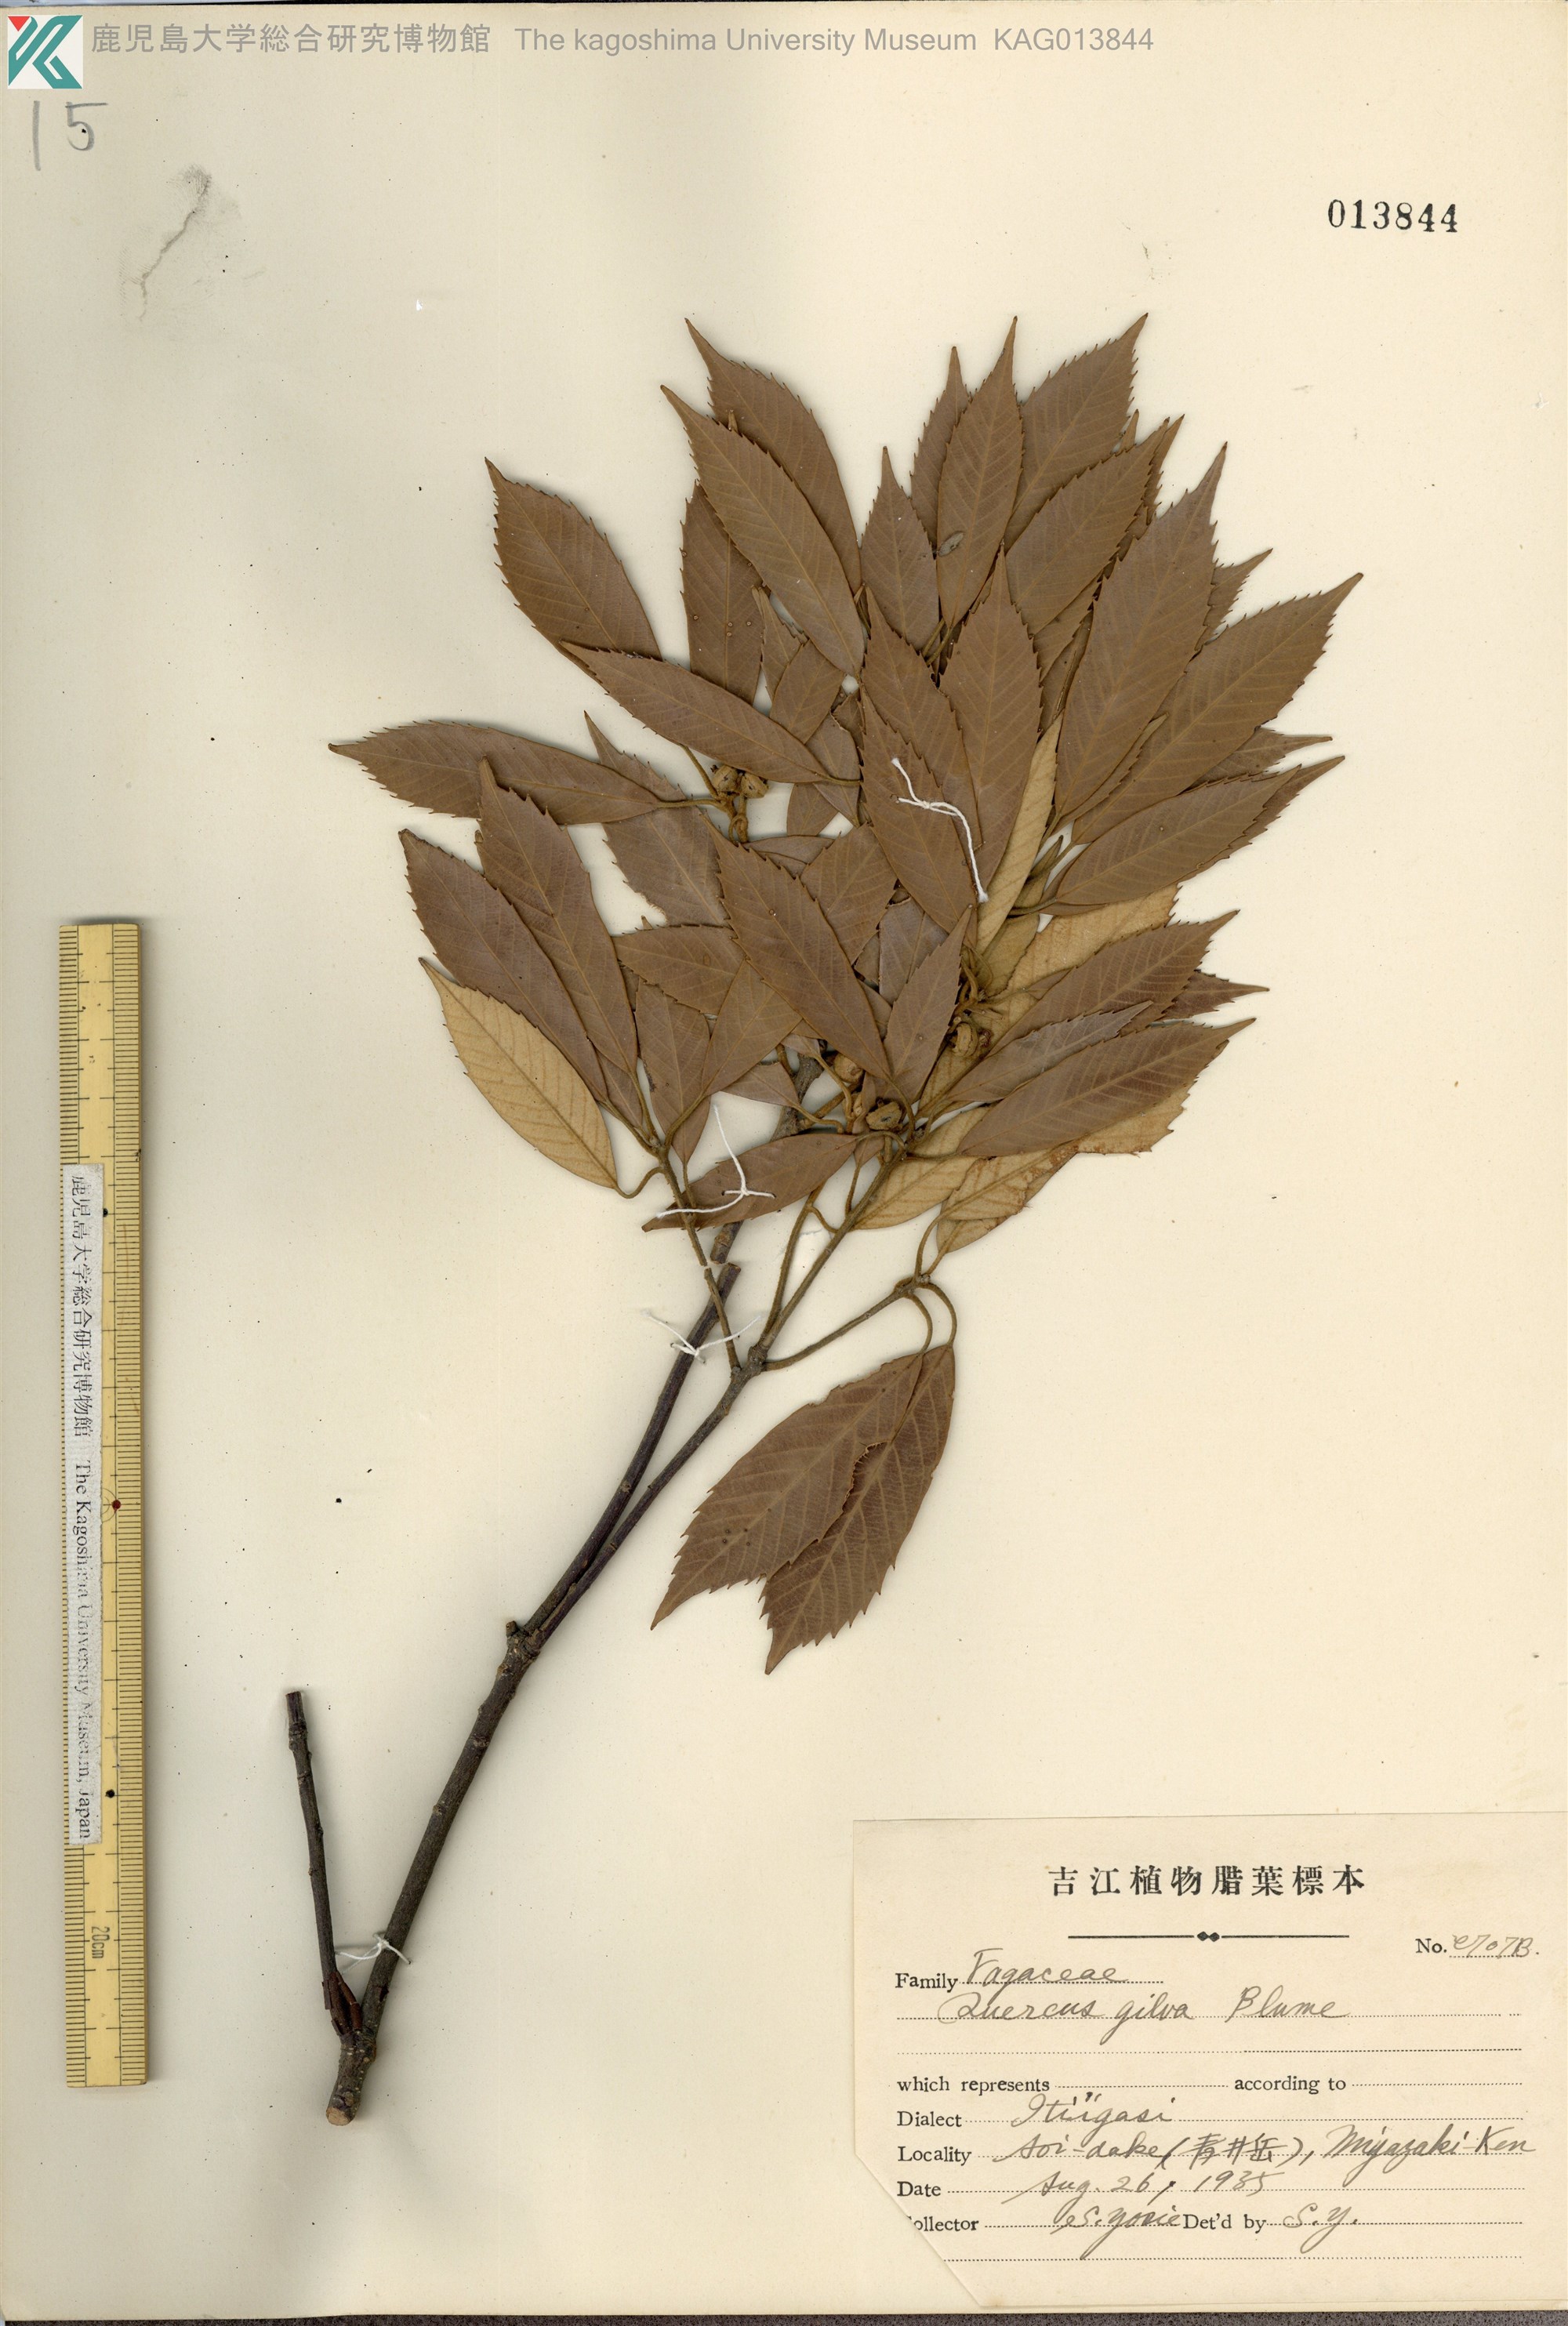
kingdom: Plantae
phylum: Tracheophyta
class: Magnoliopsida
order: Fagales
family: Fagaceae
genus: Quercus
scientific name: Quercus gilva
